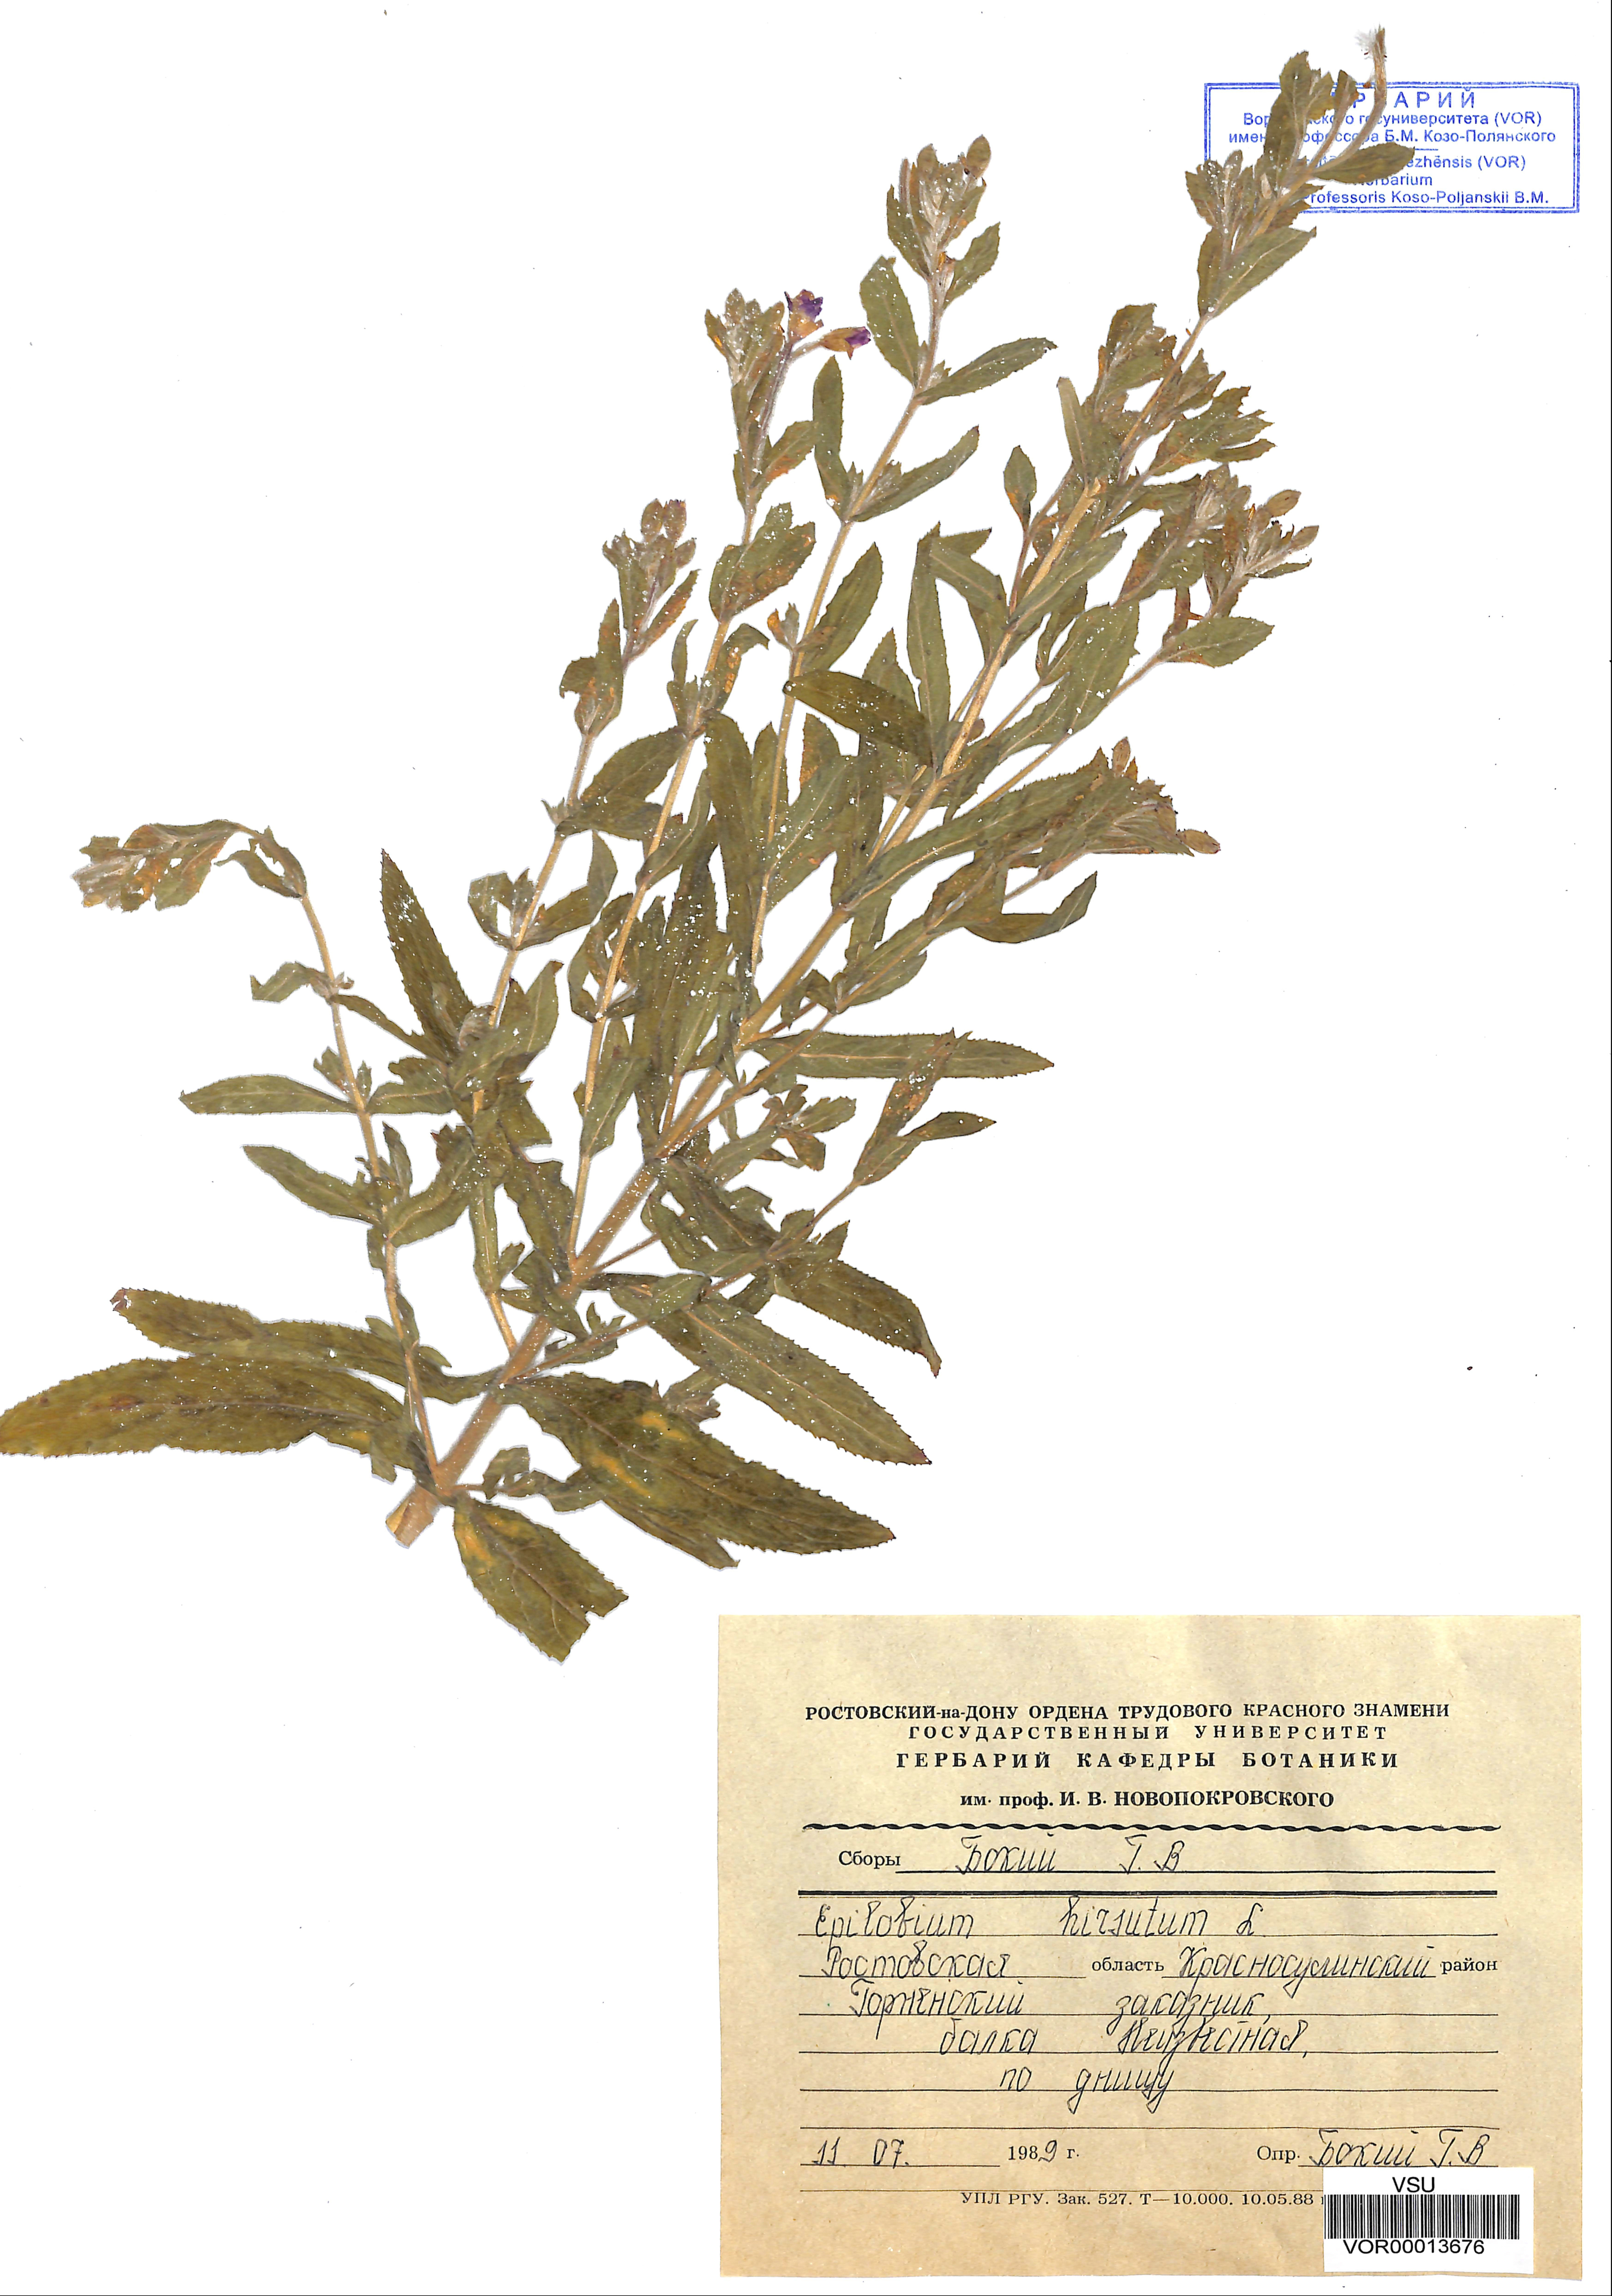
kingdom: Plantae
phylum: Tracheophyta
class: Magnoliopsida
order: Myrtales
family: Onagraceae
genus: Epilobium
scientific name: Epilobium hirsutum
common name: Great willowherb
